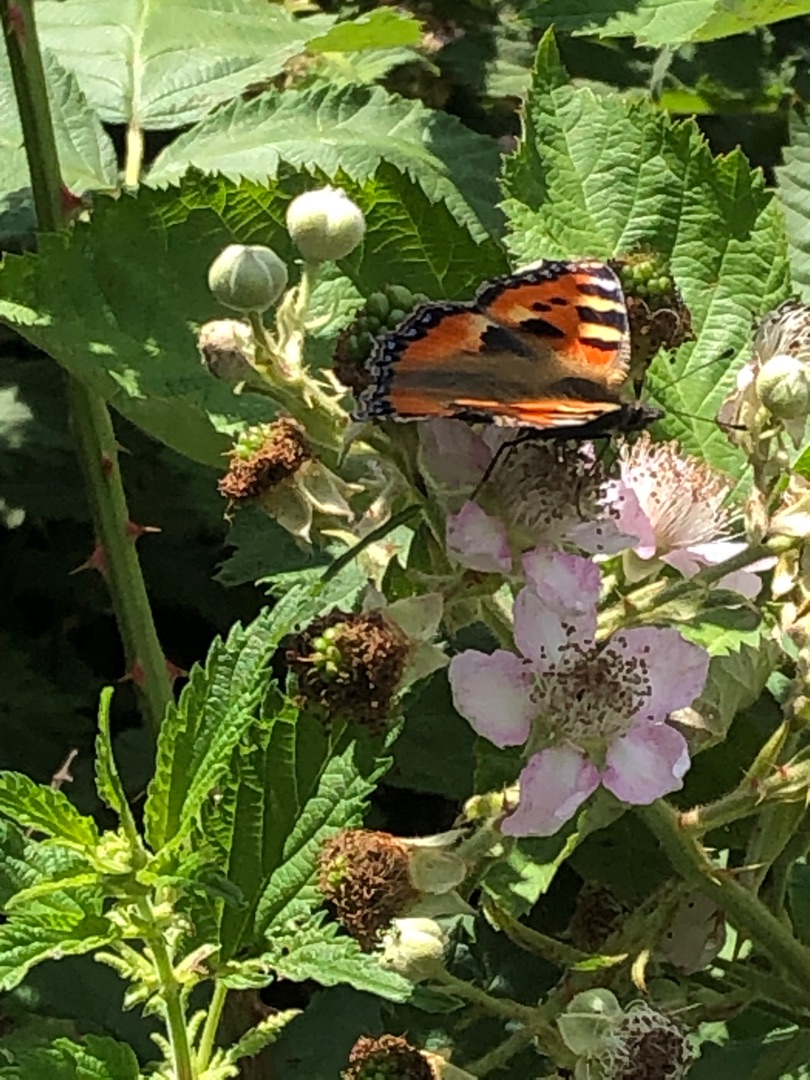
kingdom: Animalia
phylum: Arthropoda
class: Insecta
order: Lepidoptera
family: Nymphalidae
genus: Aglais
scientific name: Aglais urticae
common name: Nældens takvinge
